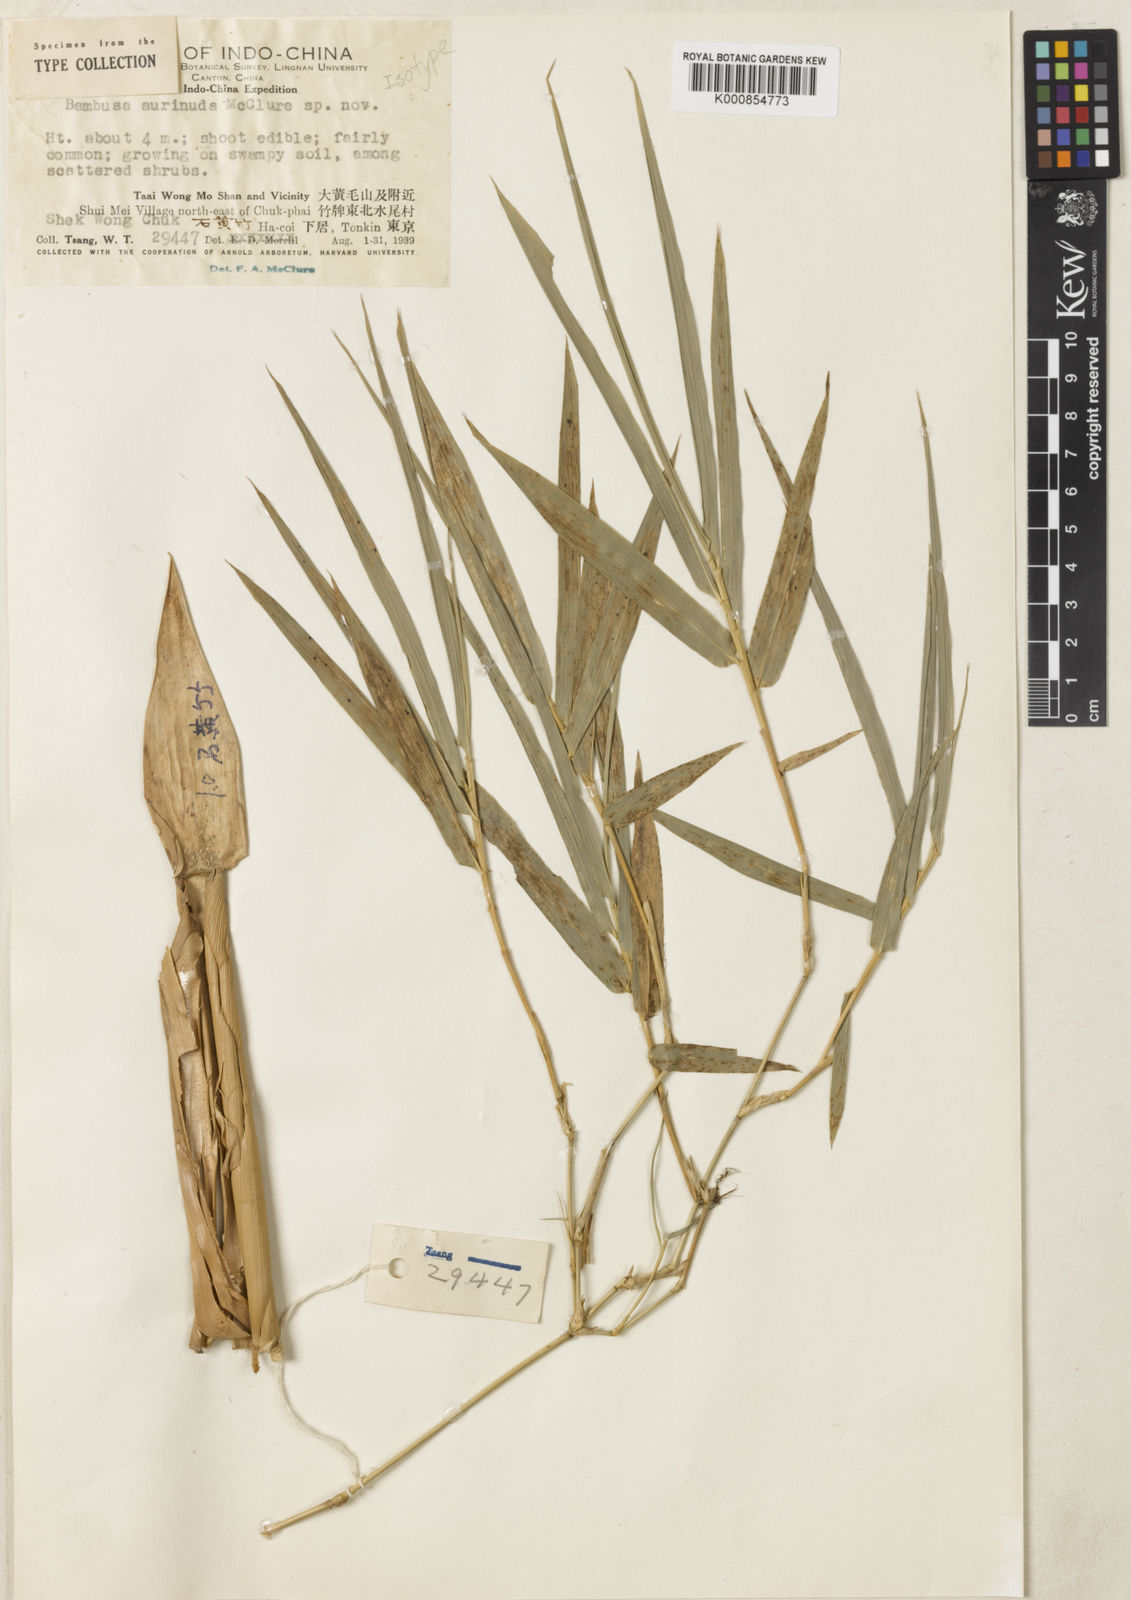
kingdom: Plantae
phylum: Tracheophyta
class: Liliopsida
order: Poales
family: Poaceae
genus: Bambusa
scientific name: Bambusa aurinuda
